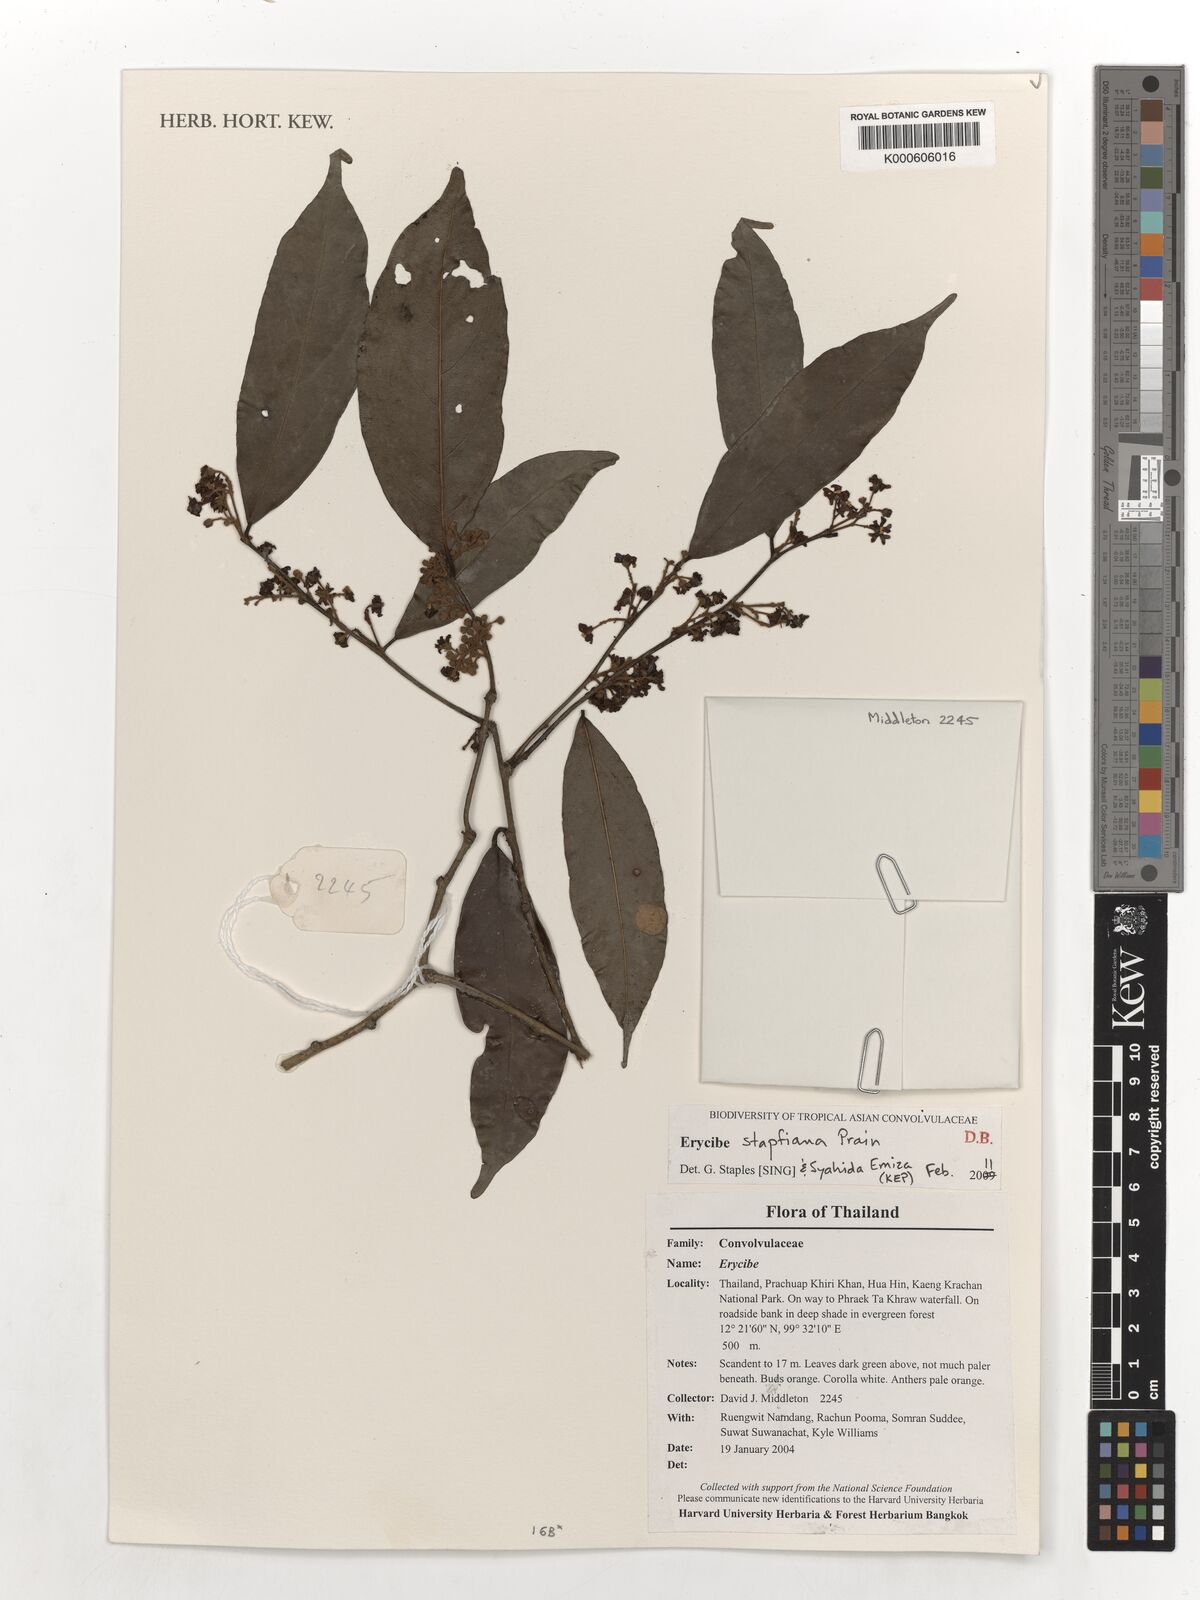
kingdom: Plantae
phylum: Tracheophyta
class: Magnoliopsida
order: Solanales
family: Convolvulaceae
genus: Erycibe
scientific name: Erycibe stapfiana
